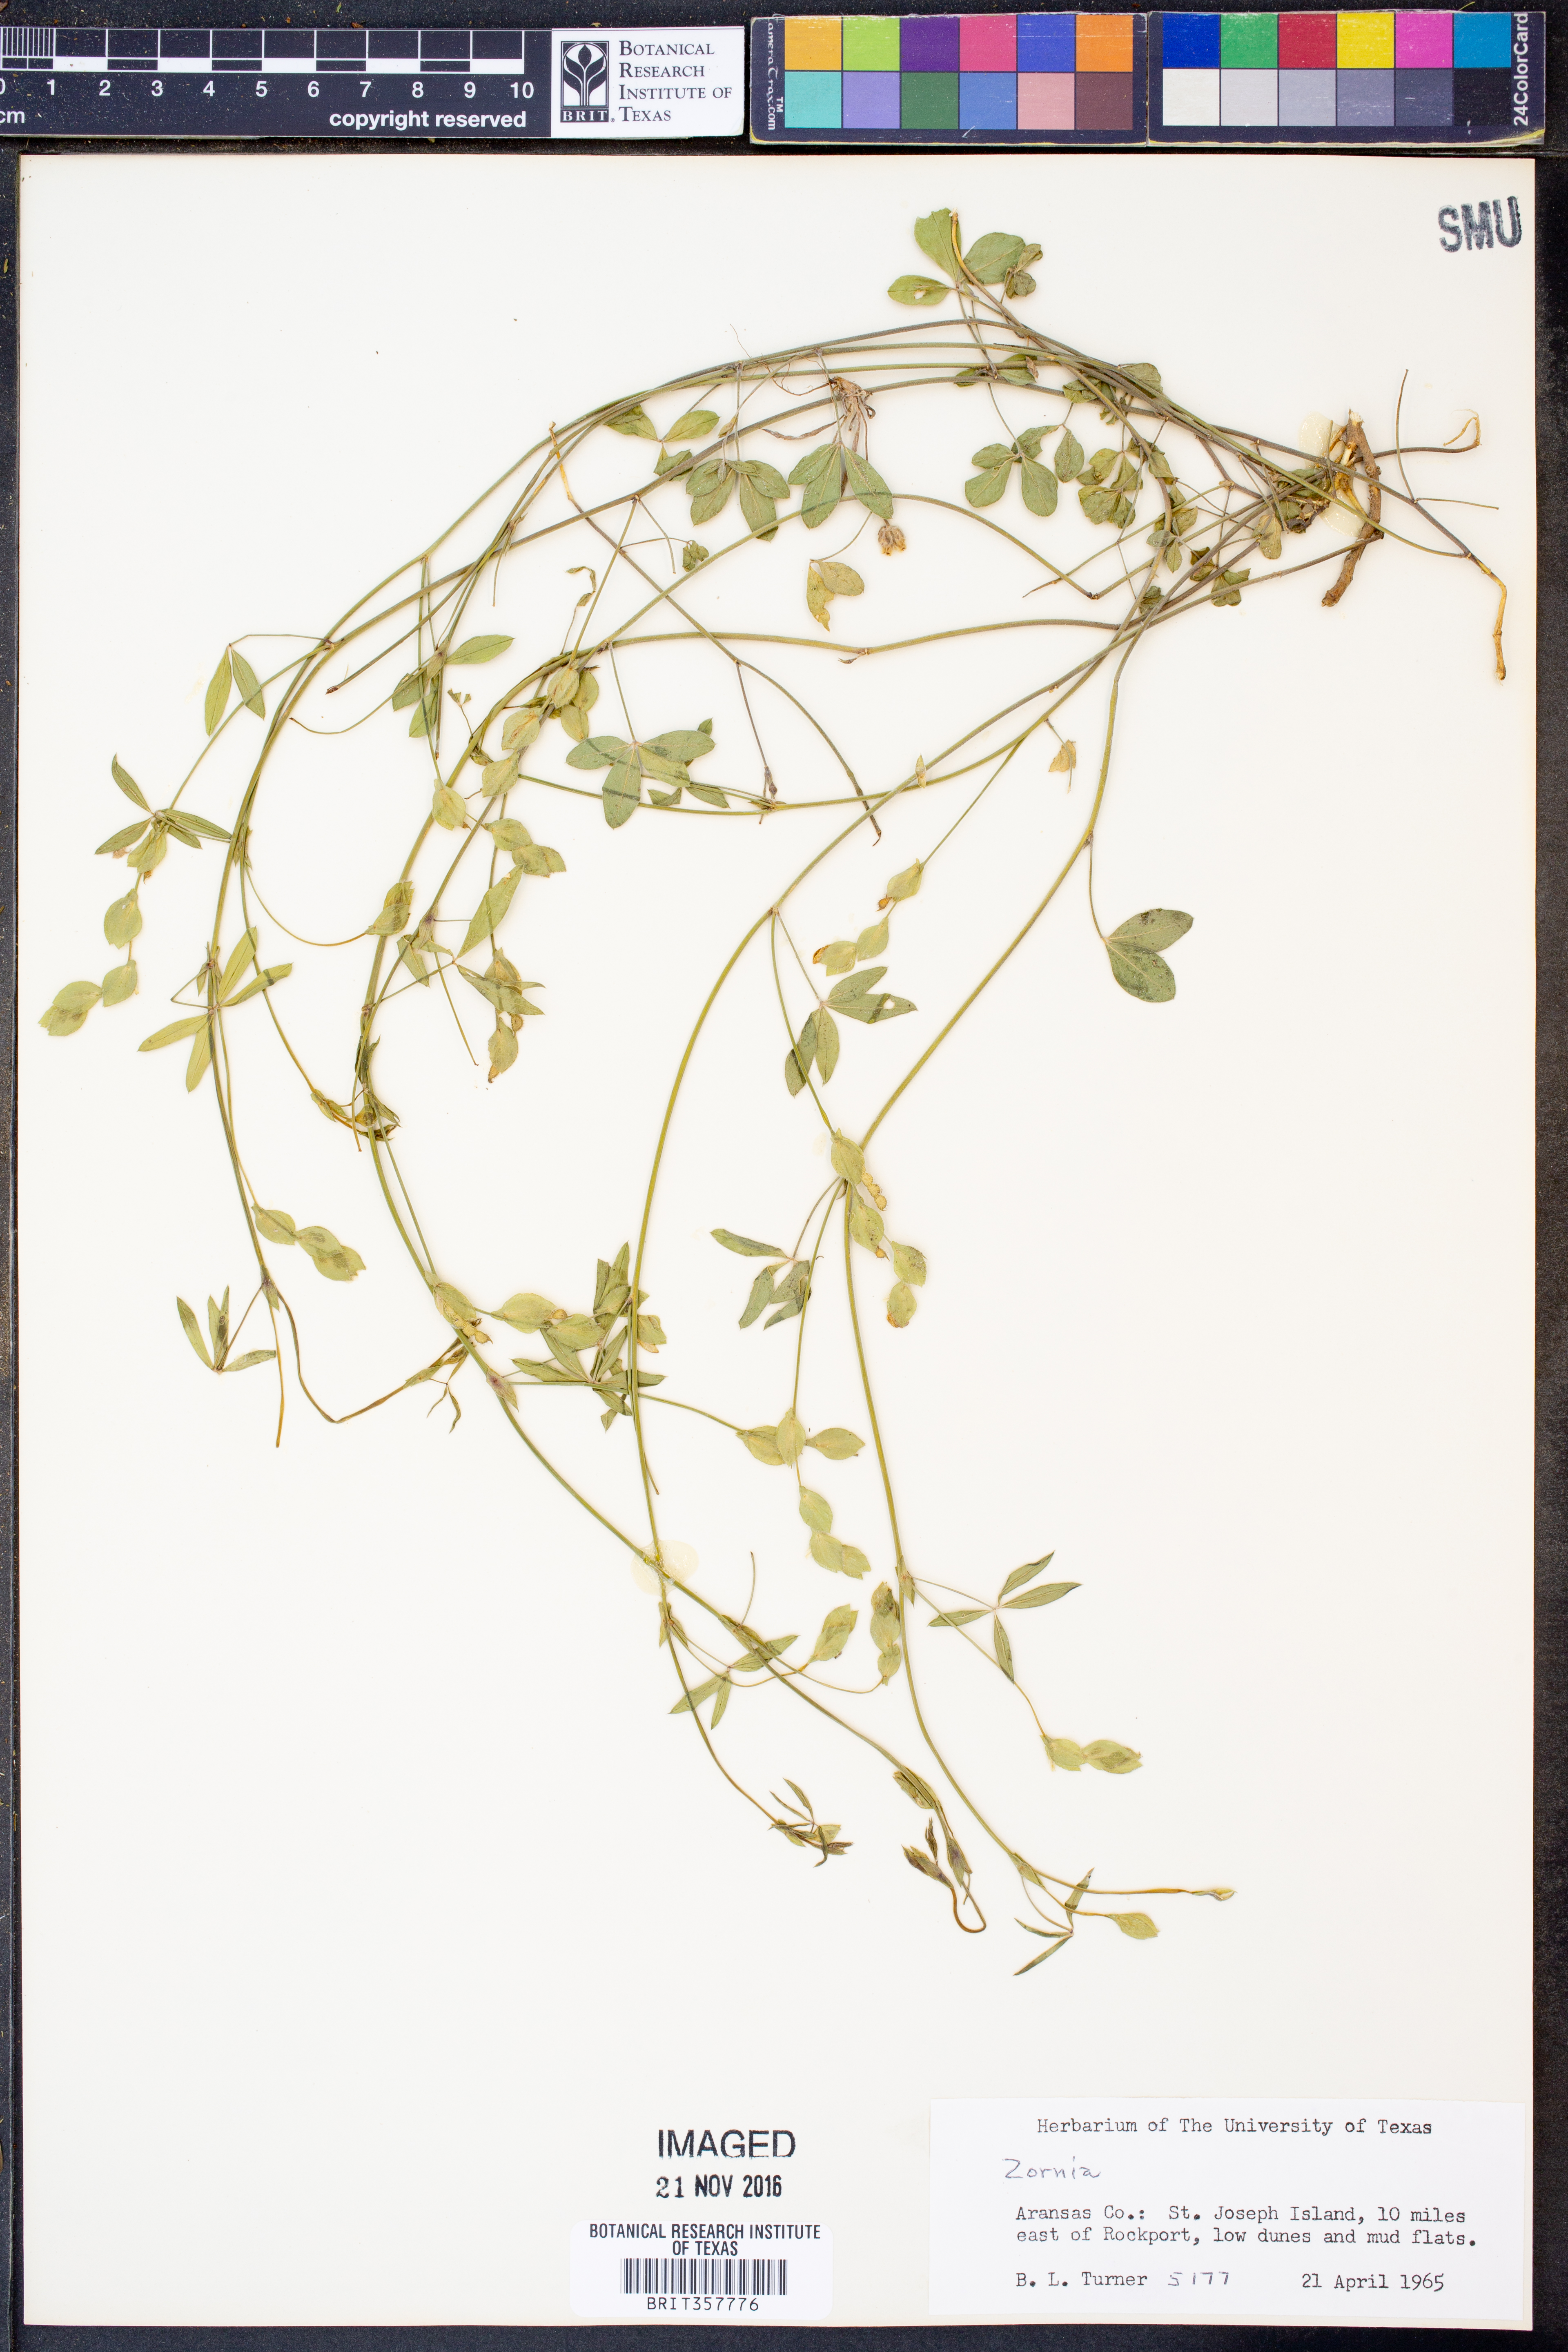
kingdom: Plantae
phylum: Tracheophyta
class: Magnoliopsida
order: Fabales
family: Fabaceae
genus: Zornia
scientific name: Zornia
